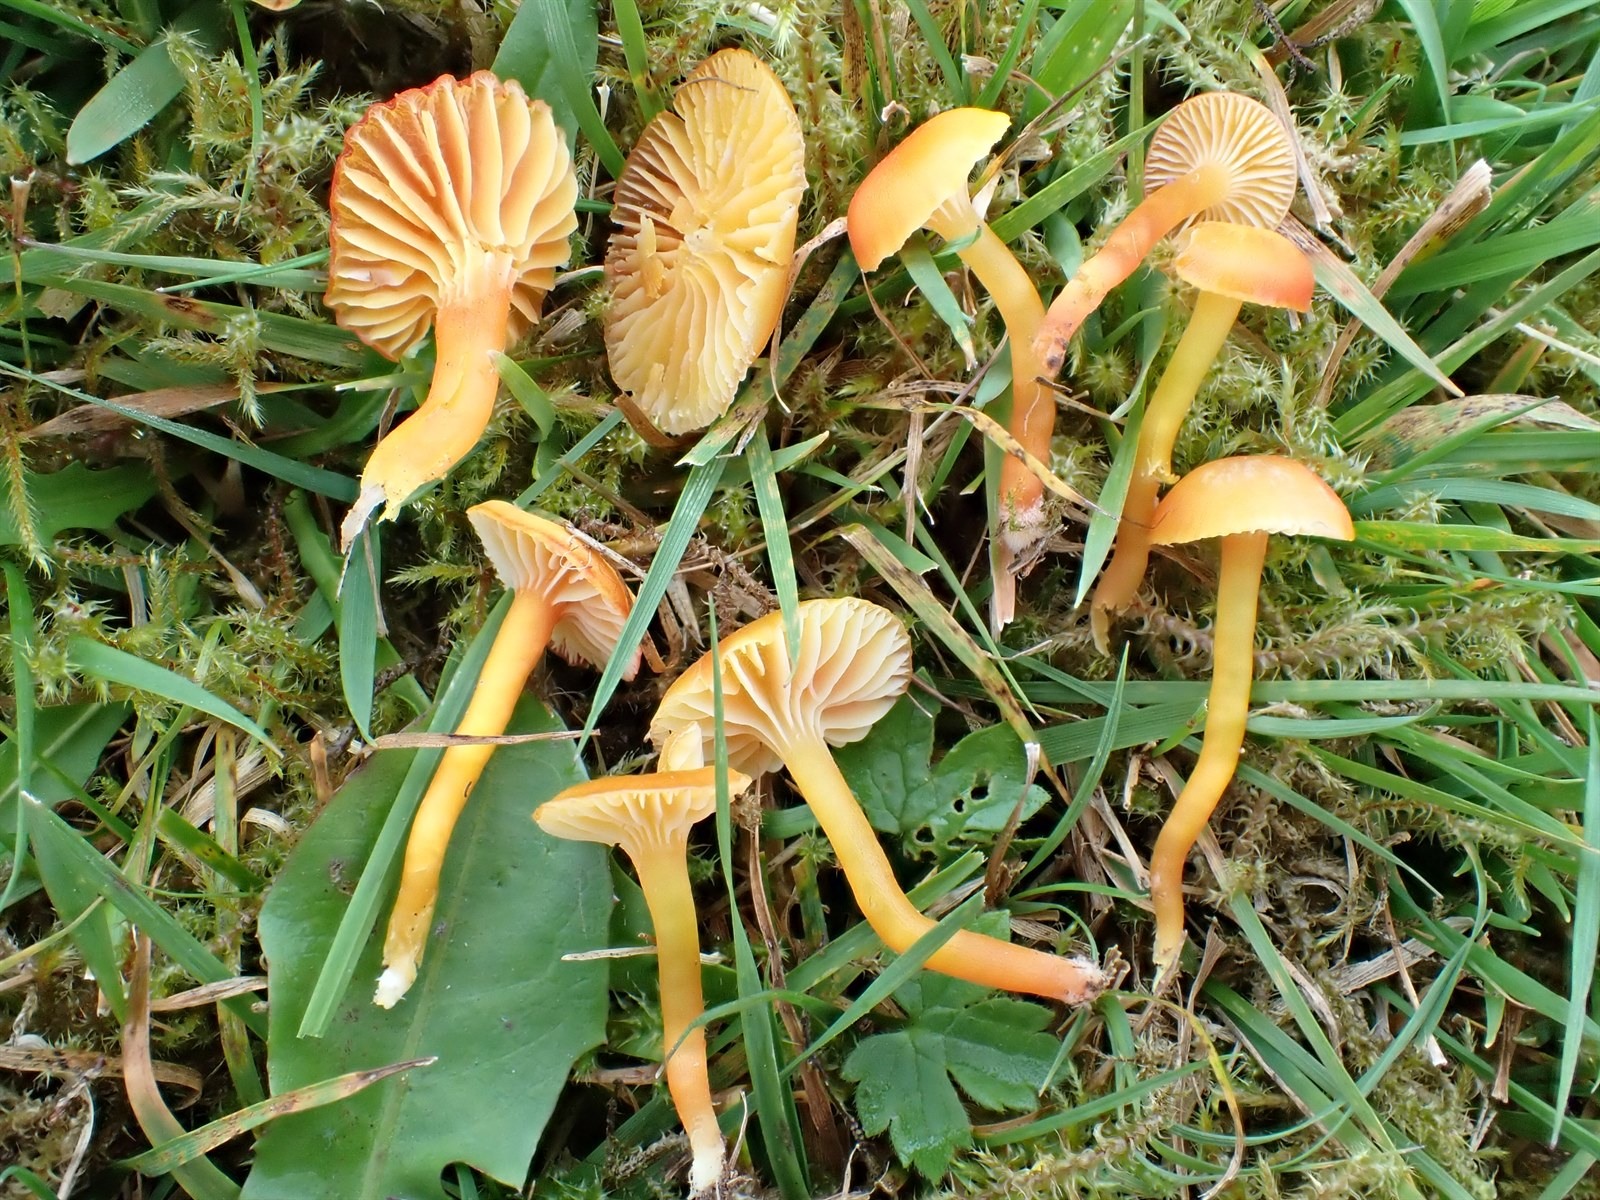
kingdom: Fungi
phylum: Basidiomycota
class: Agaricomycetes
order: Agaricales
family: Hygrophoraceae
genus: Hygrocybe
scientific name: Hygrocybe insipida
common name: Spangle waxcap
